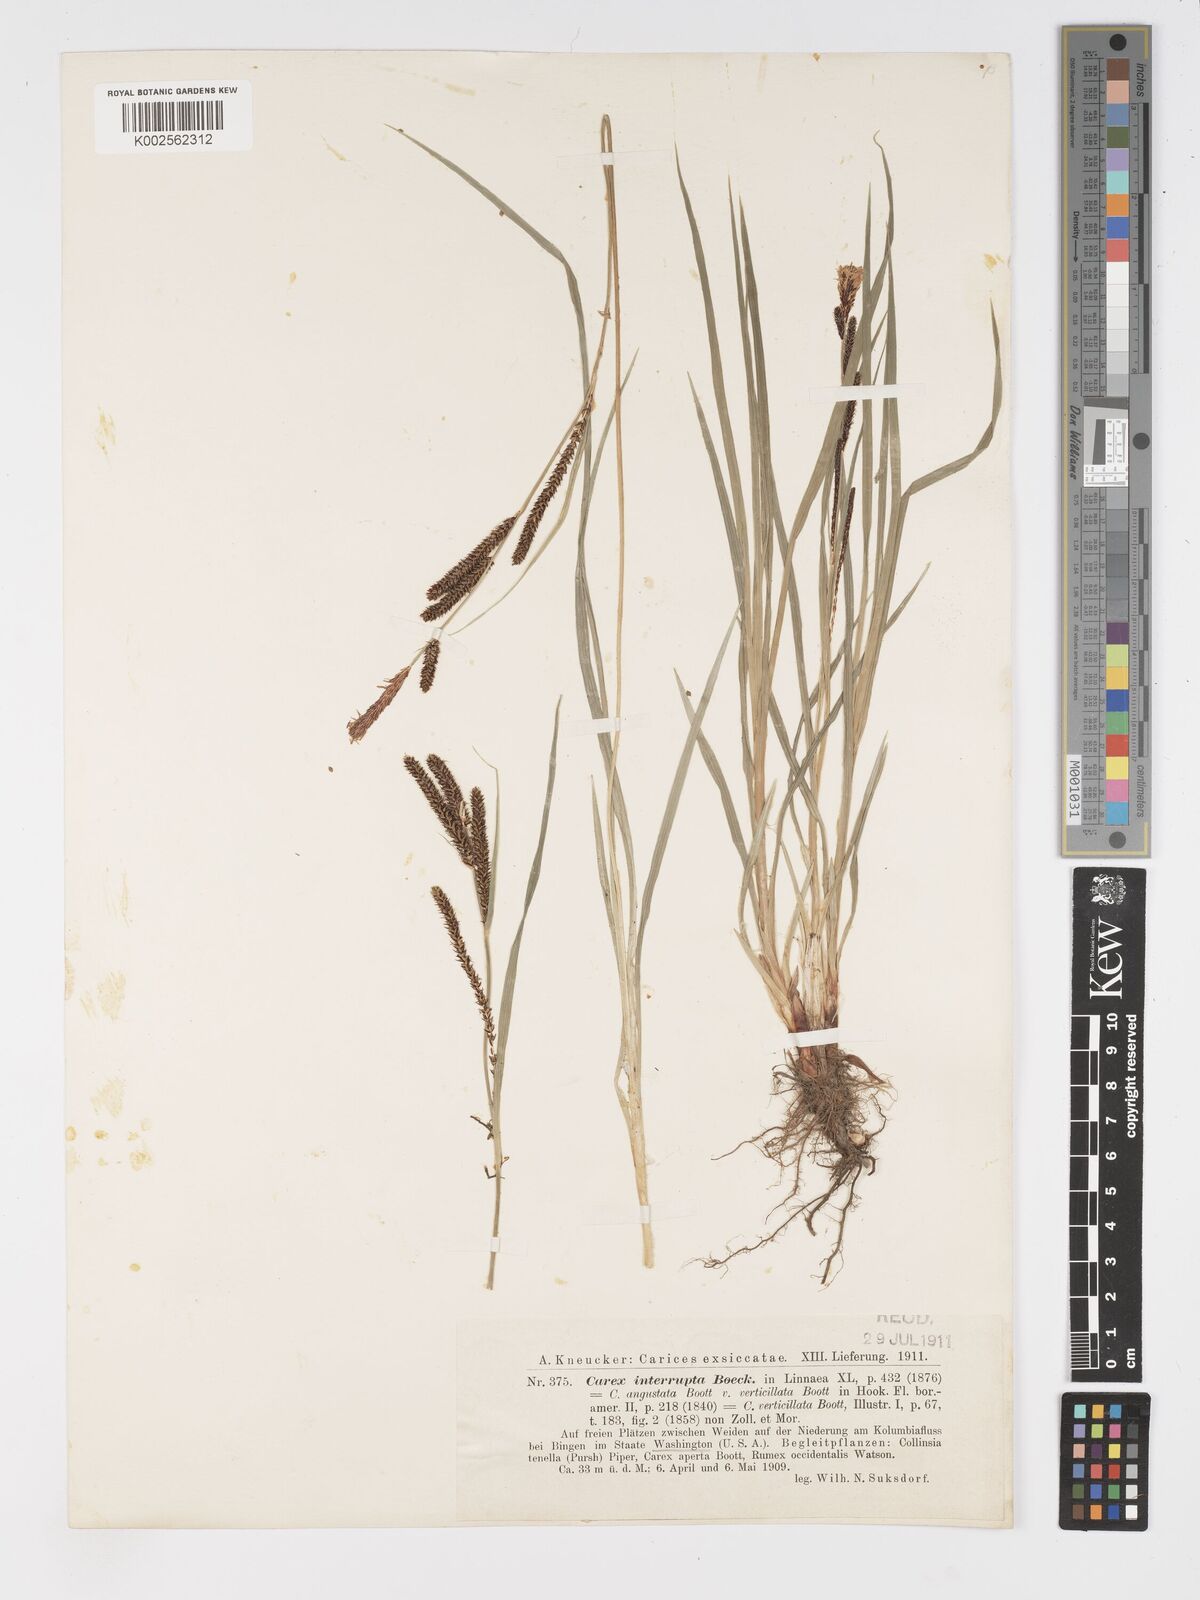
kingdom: Plantae
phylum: Tracheophyta
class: Liliopsida
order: Poales
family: Cyperaceae
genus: Carex
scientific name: Carex interrupta
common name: Green-fruited sedge
